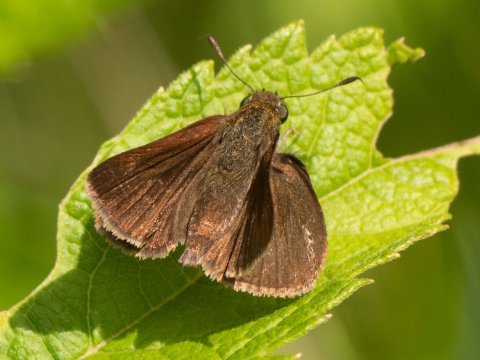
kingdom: Animalia
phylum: Arthropoda
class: Insecta
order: Lepidoptera
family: Hesperiidae
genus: Euphyes
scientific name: Euphyes vestris
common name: Dun Skipper
